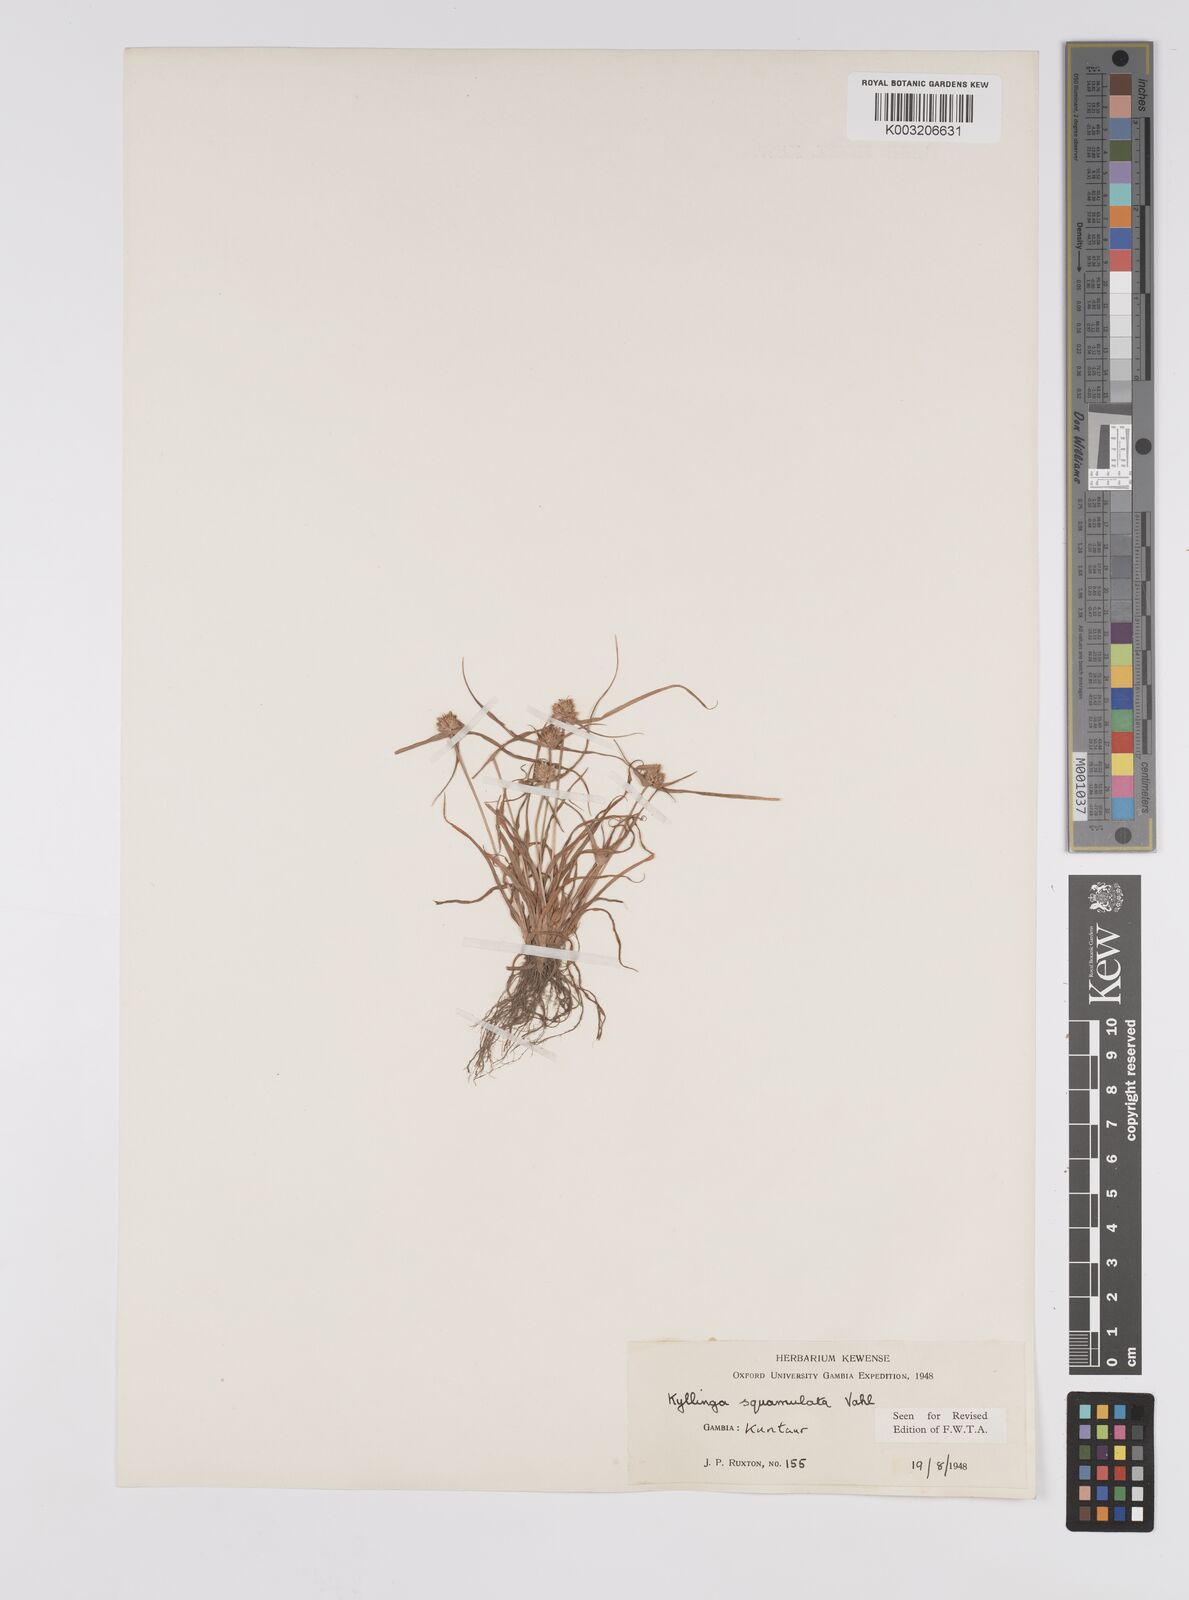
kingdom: Plantae
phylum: Tracheophyta
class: Liliopsida
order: Poales
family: Cyperaceae
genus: Cyperus
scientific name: Cyperus distans
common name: Slender cyperus
